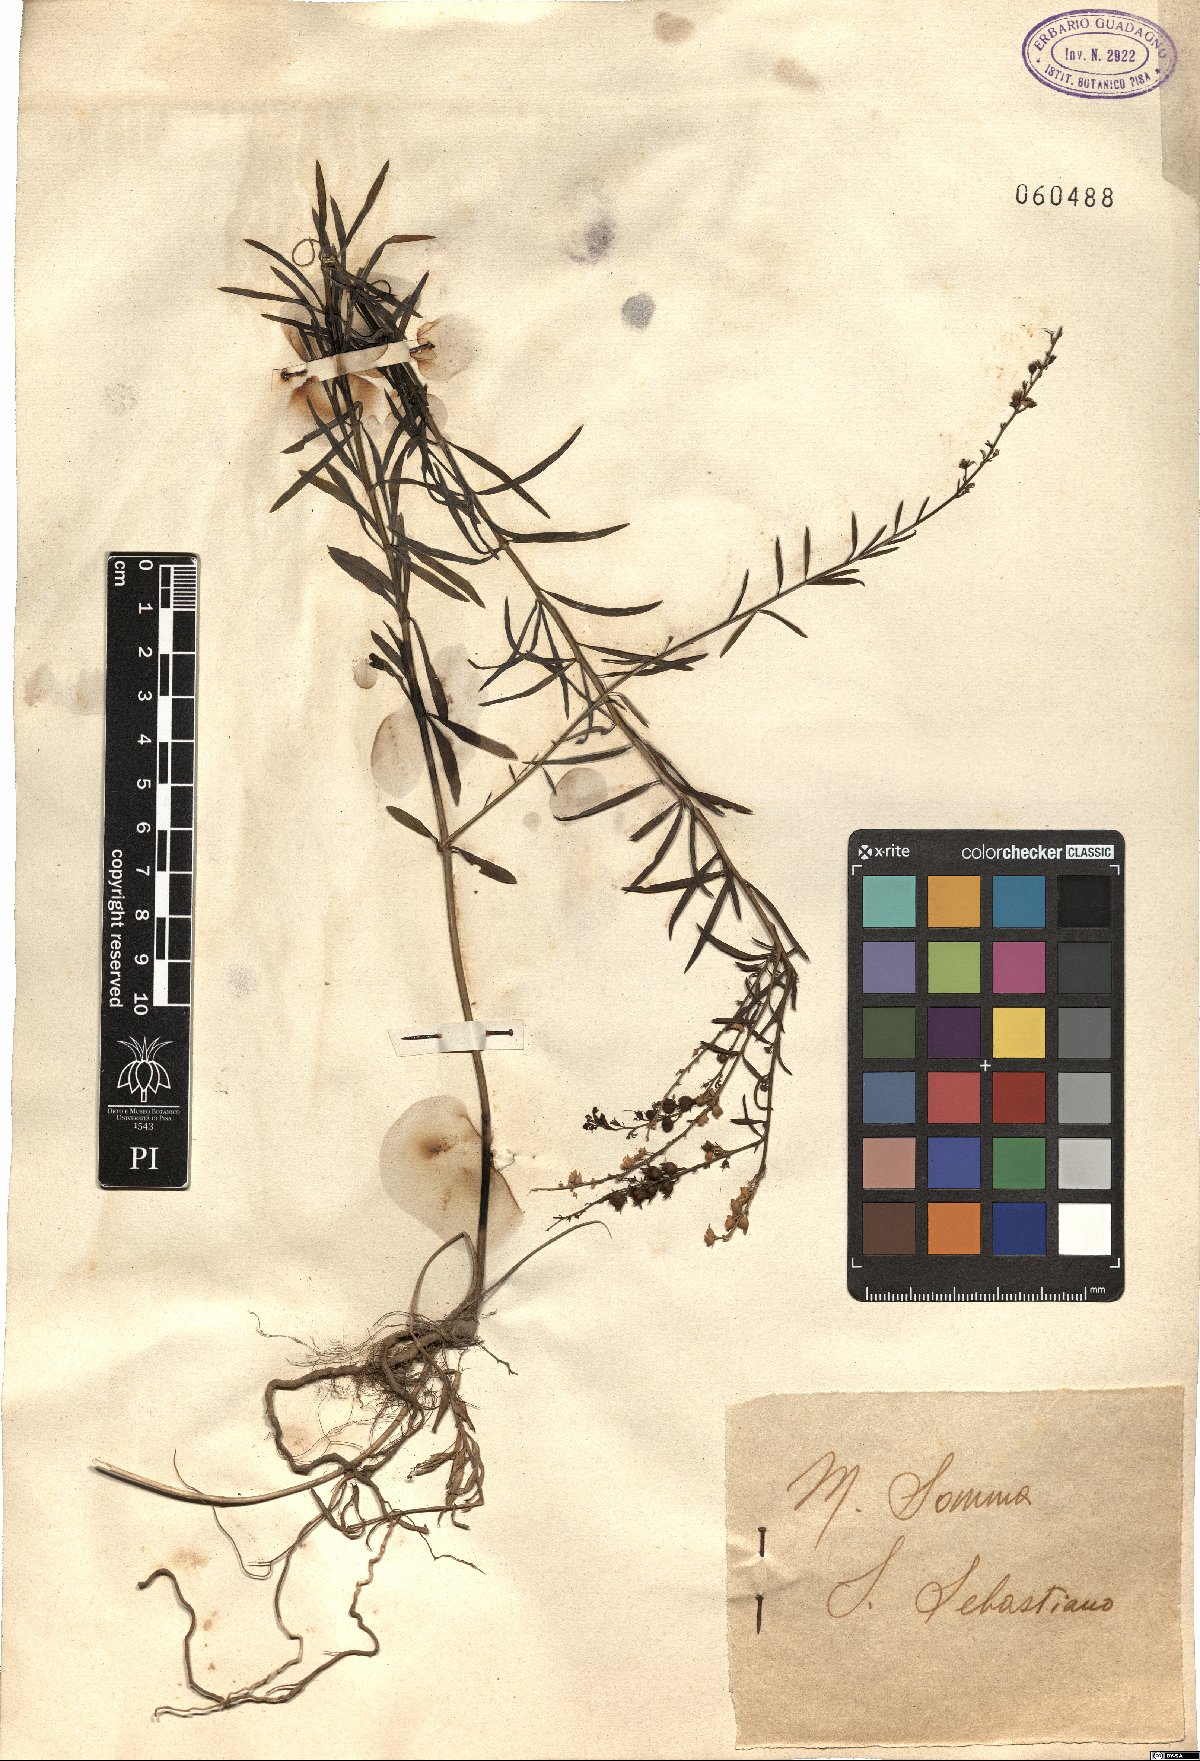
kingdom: Plantae
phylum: Tracheophyta
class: Magnoliopsida
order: Lamiales
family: Plantaginaceae
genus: Linaria
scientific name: Linaria
